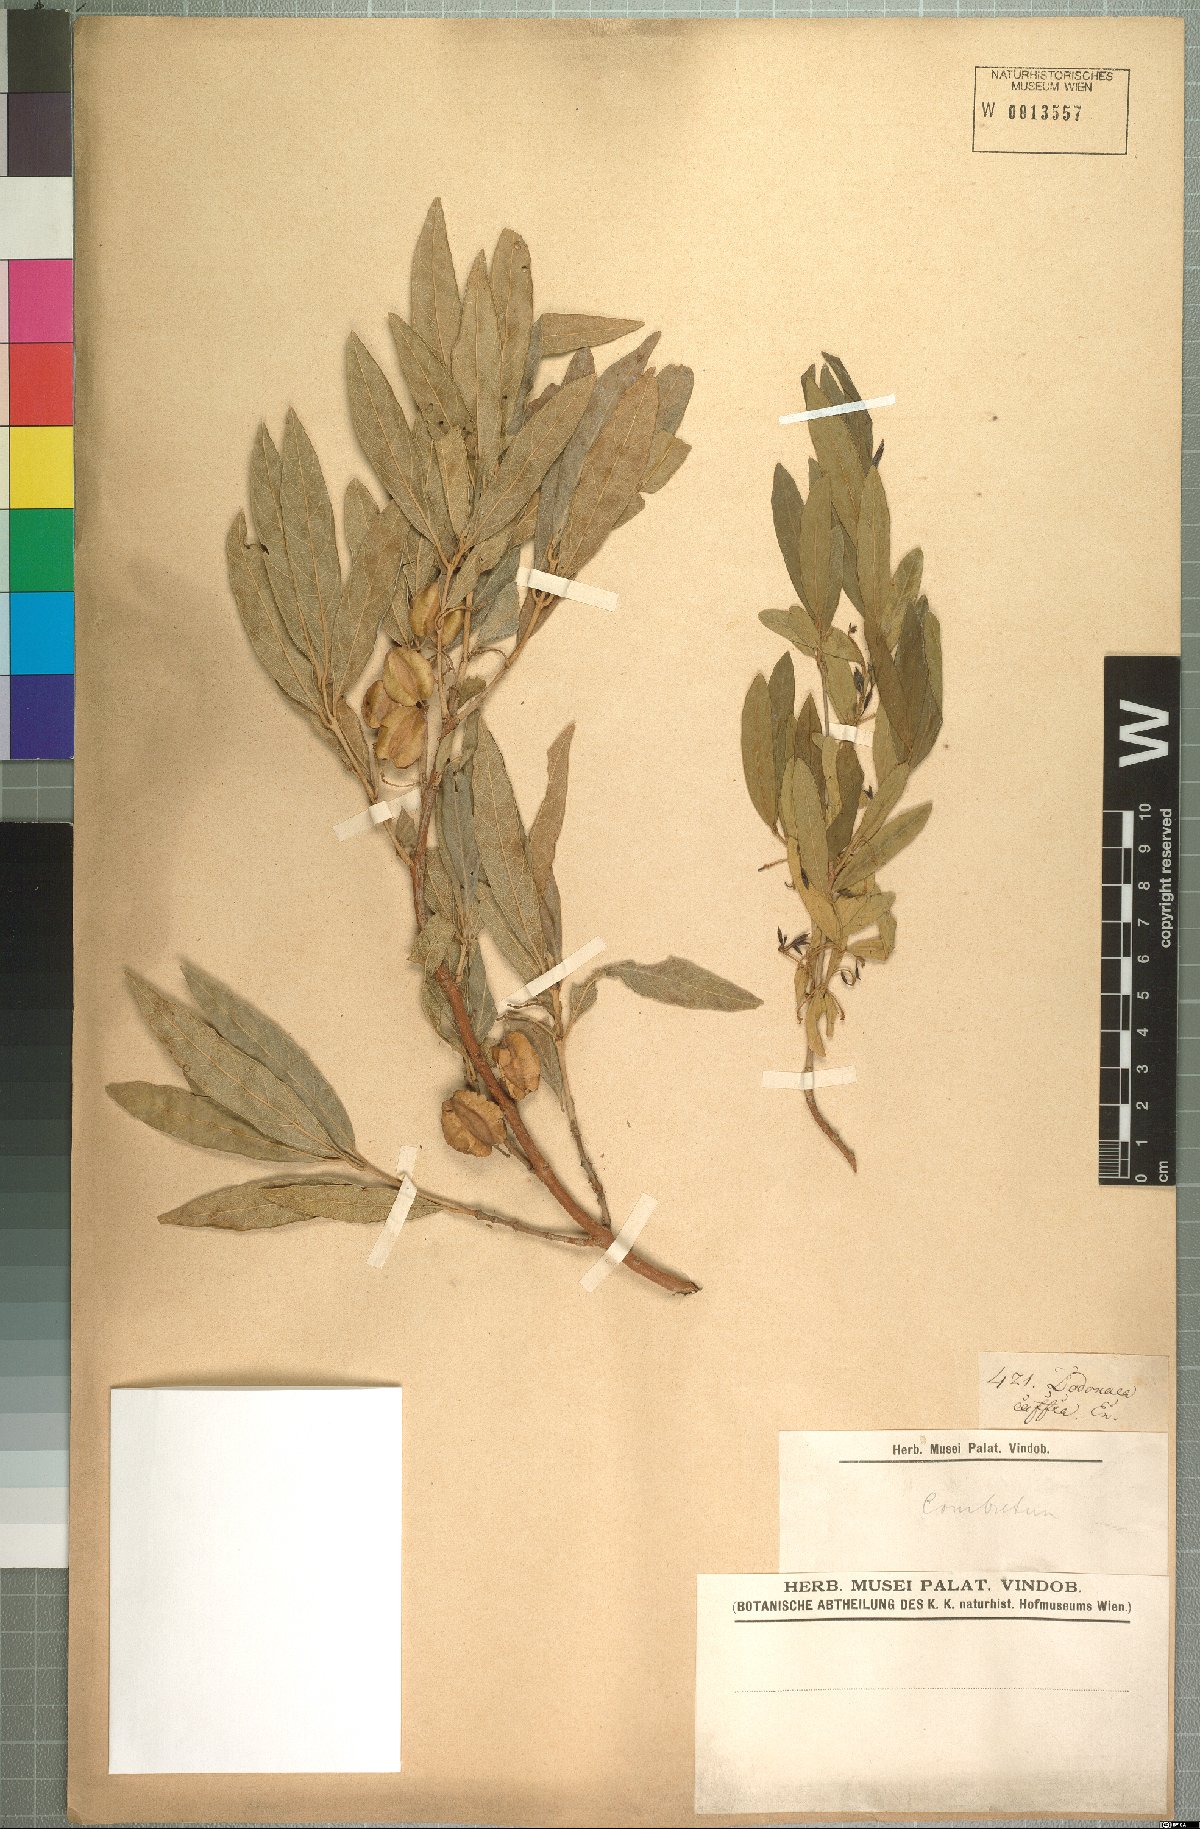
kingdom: Plantae
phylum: Tracheophyta
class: Magnoliopsida
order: Myrtales
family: Combretaceae
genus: Combretum
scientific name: Combretum caffrum
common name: Cape bushwillow
